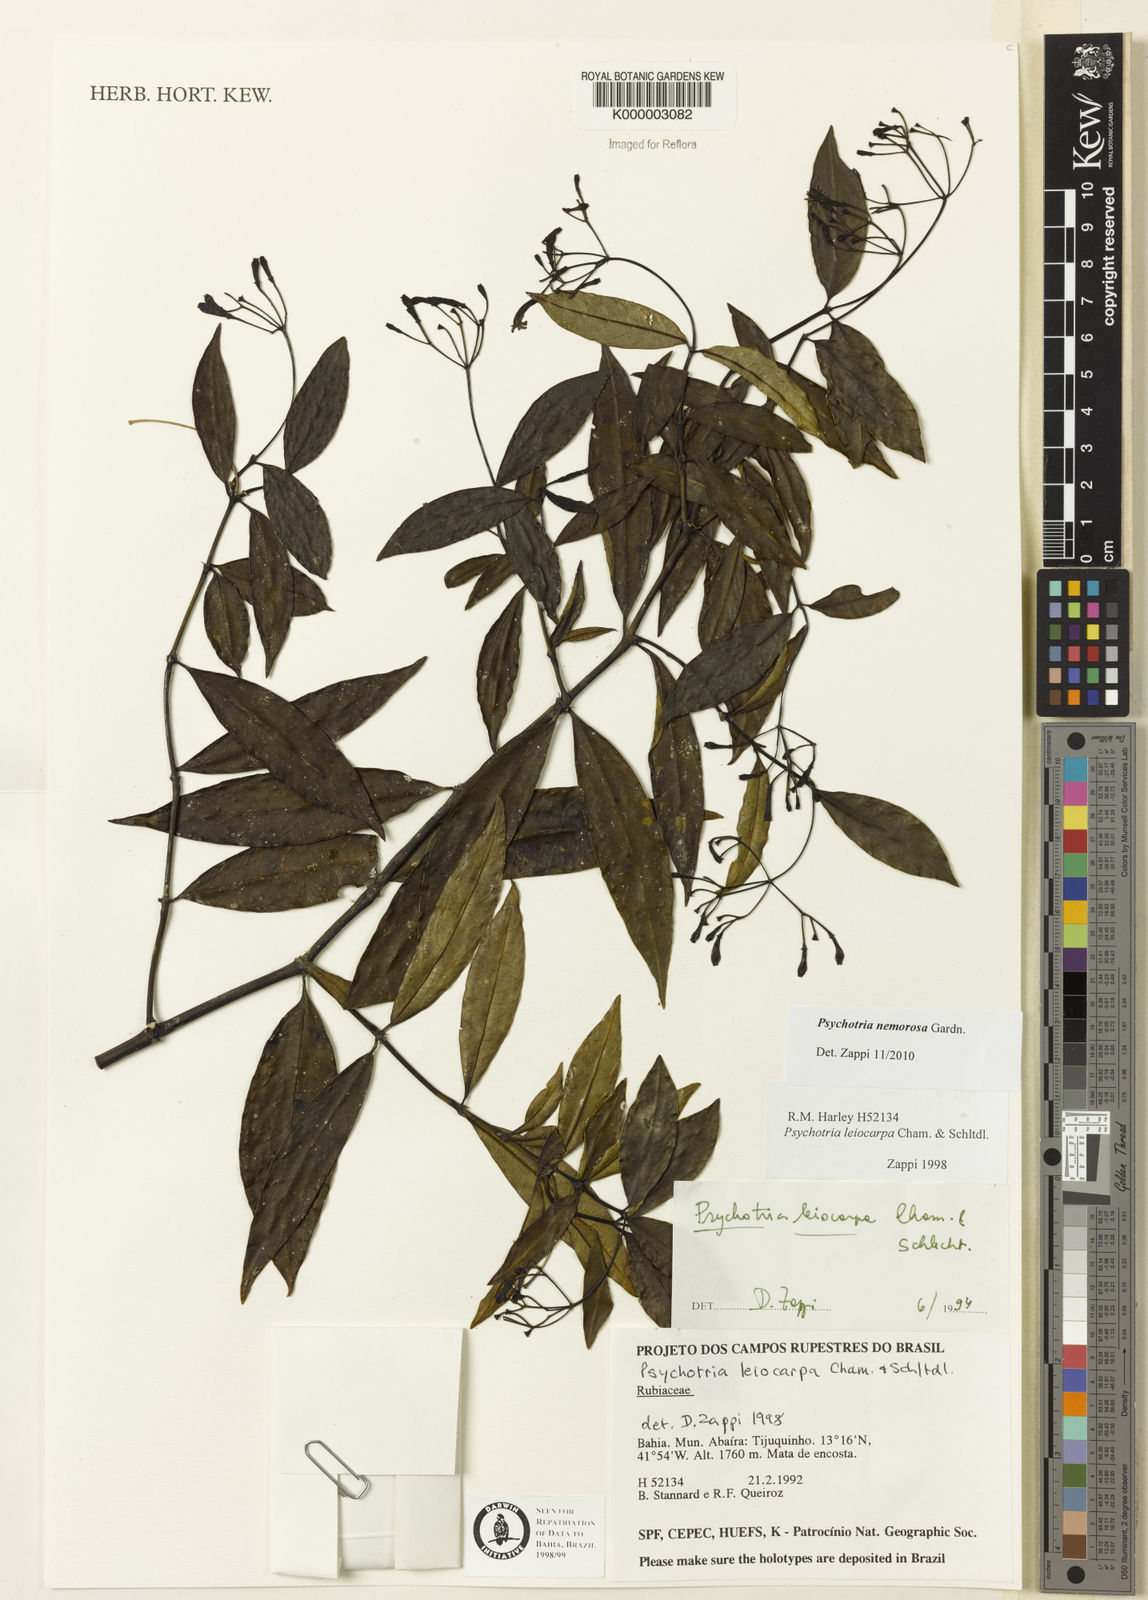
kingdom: Plantae
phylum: Tracheophyta
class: Magnoliopsida
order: Gentianales
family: Rubiaceae
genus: Psychotria
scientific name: Psychotria nemorosa
